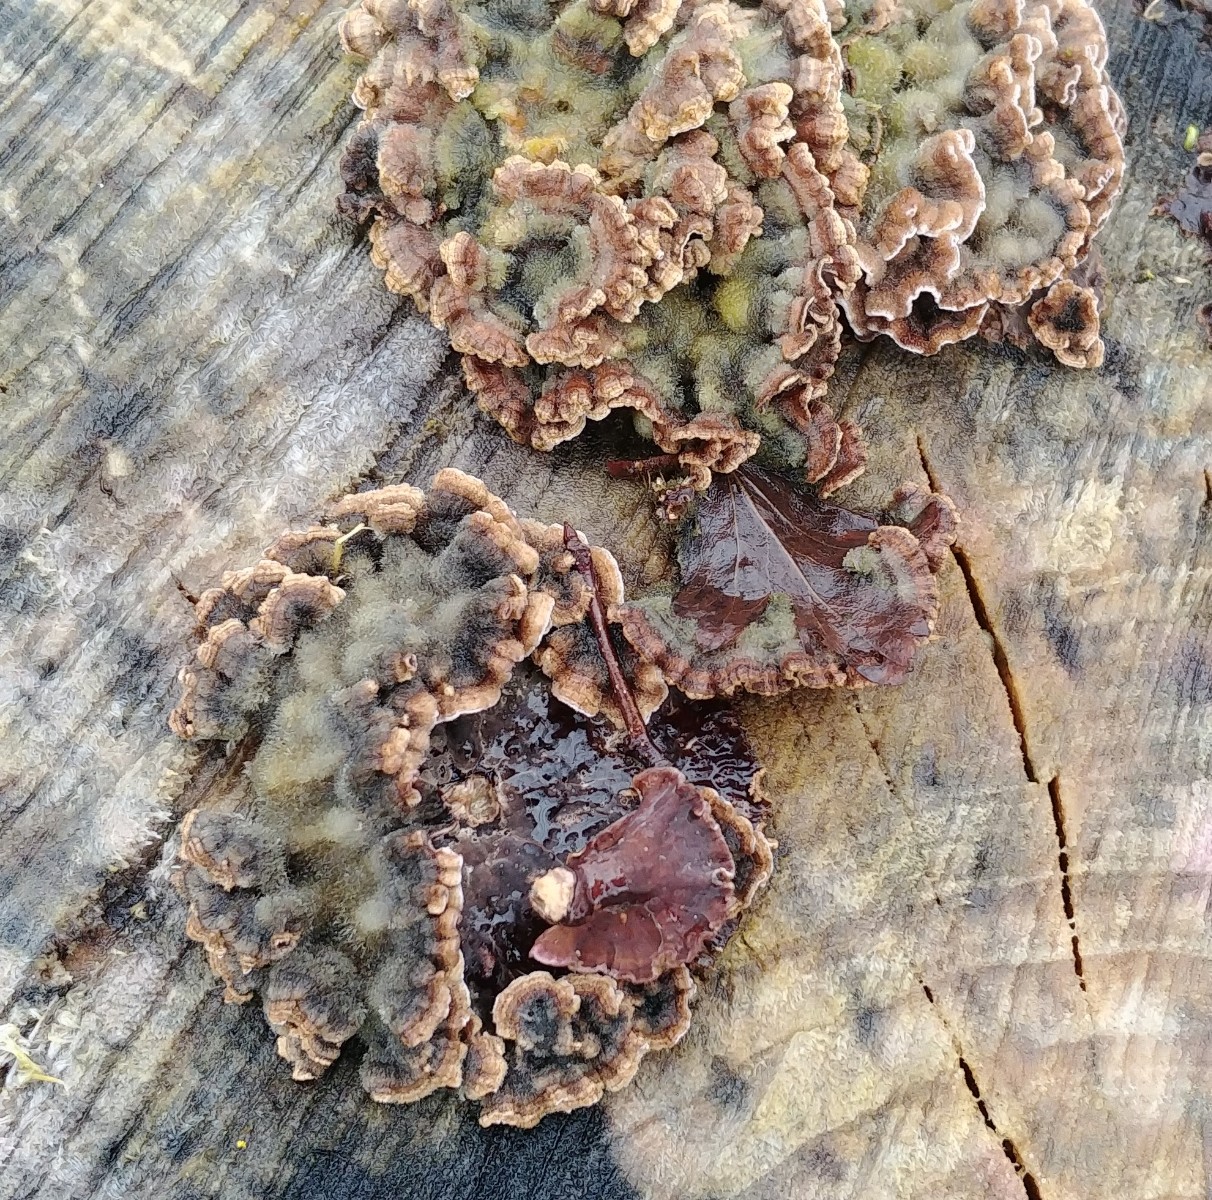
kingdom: Fungi
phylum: Basidiomycota
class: Agaricomycetes
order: Agaricales
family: Cyphellaceae
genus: Chondrostereum
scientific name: Chondrostereum purpureum
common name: purpurlædersvamp
